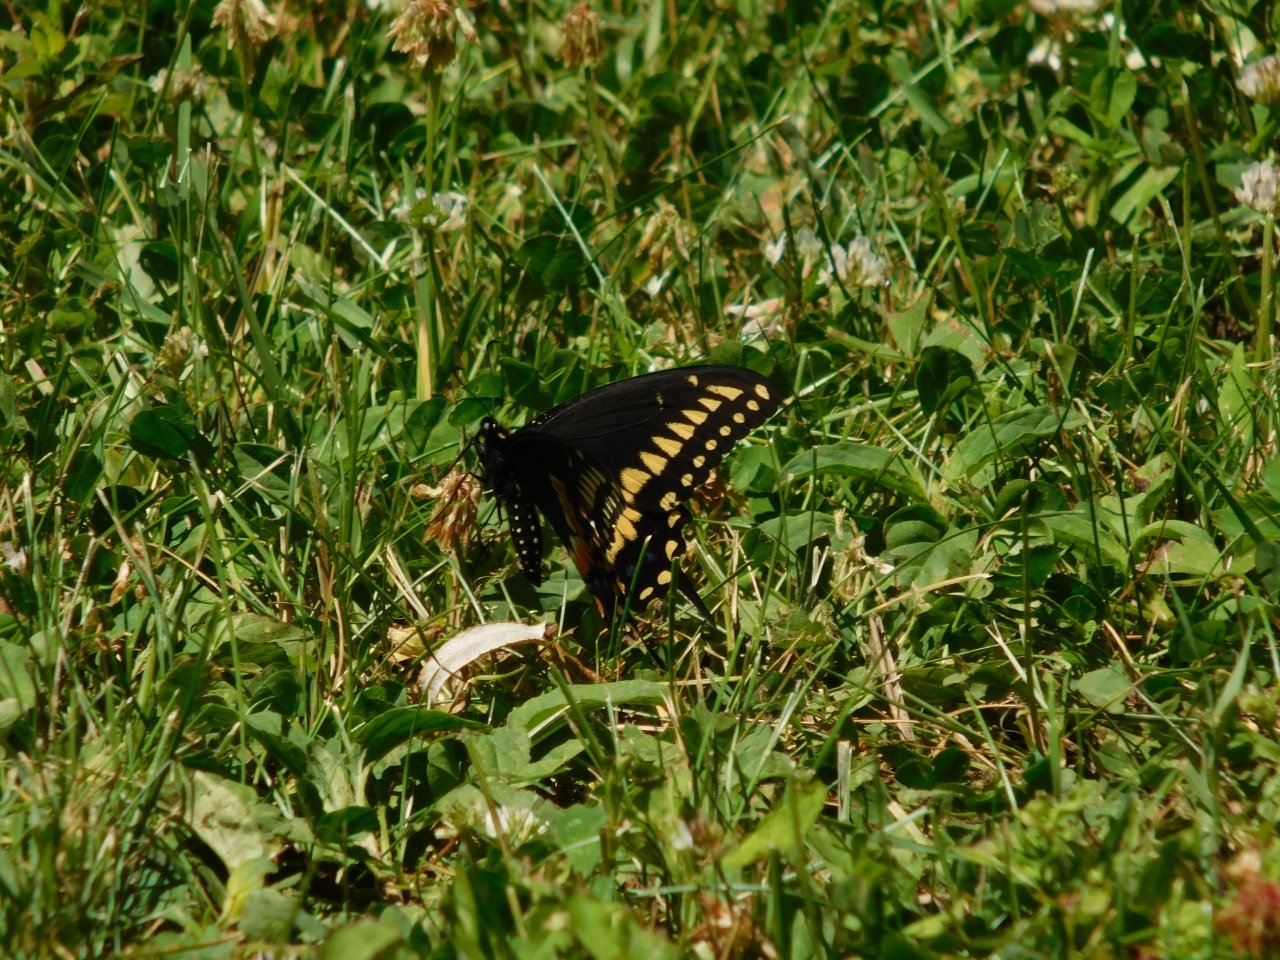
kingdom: Animalia
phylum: Arthropoda
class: Insecta
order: Lepidoptera
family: Papilionidae
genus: Papilio
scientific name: Papilio polyxenes
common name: Black Swallowtail
